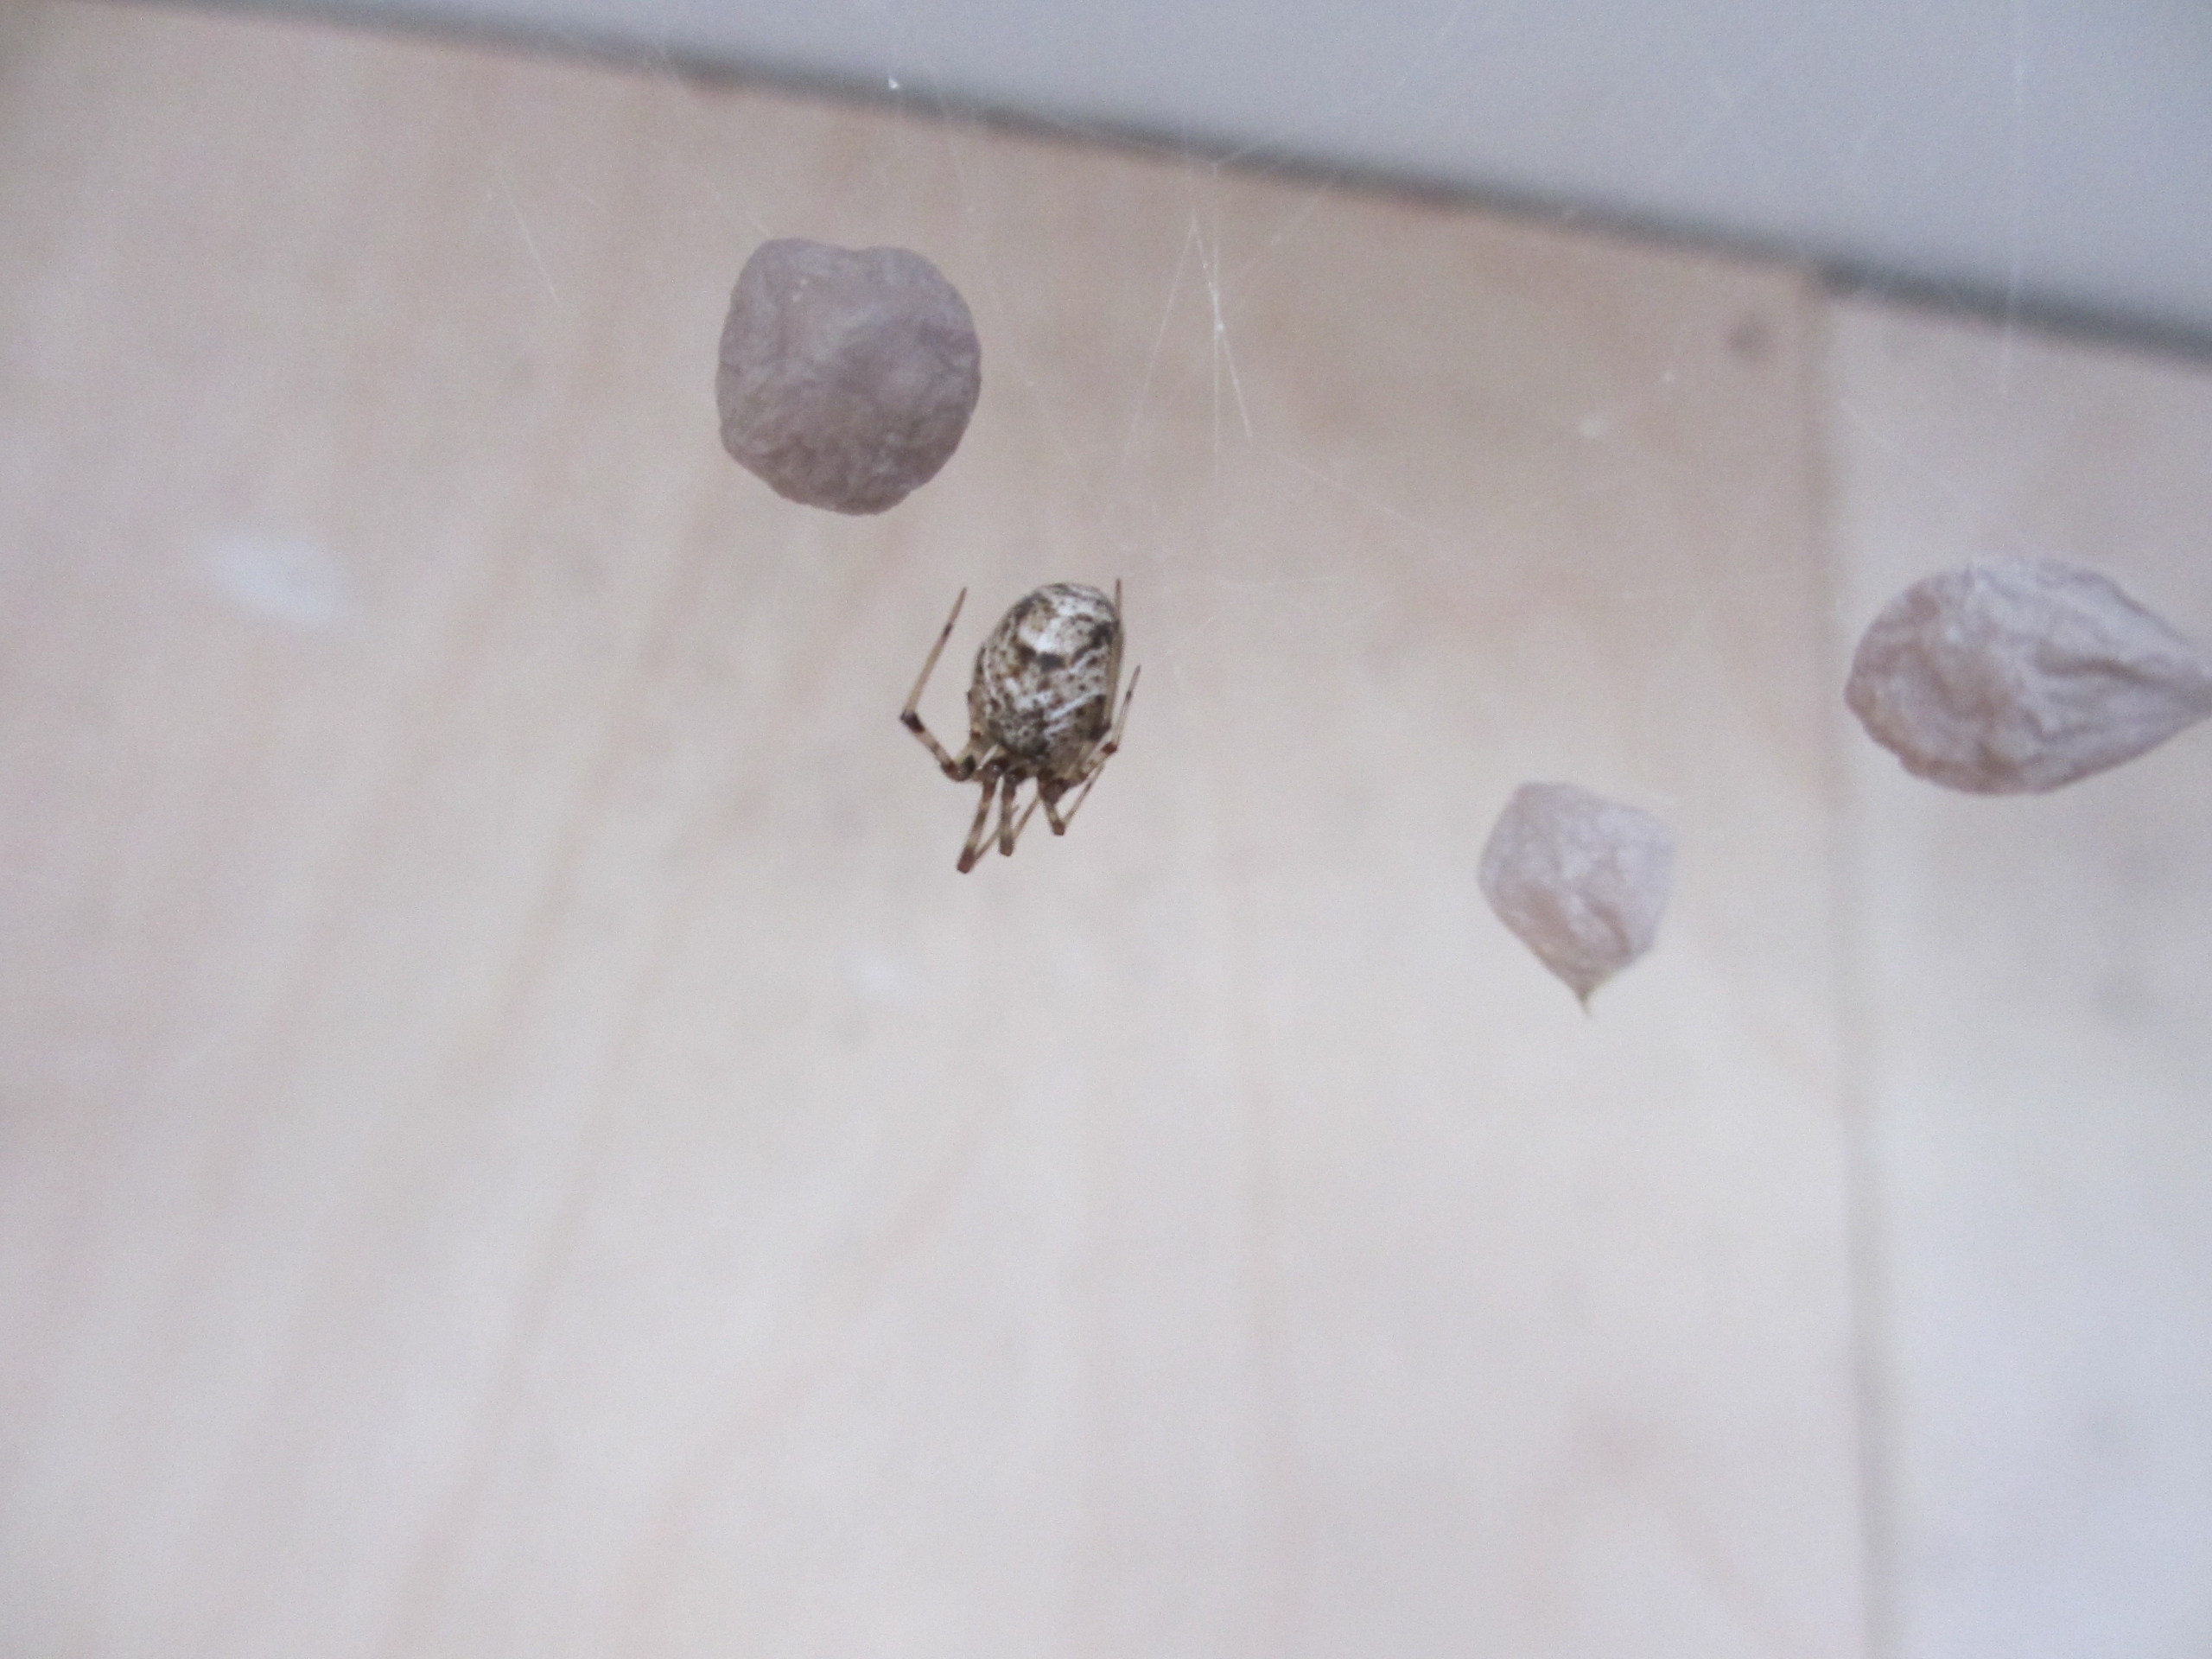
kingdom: Animalia
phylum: Arthropoda
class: Arachnida
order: Araneae
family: Theridiidae
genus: Parasteatoda
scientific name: Parasteatoda tepidariorum
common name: Væksthusspinder
